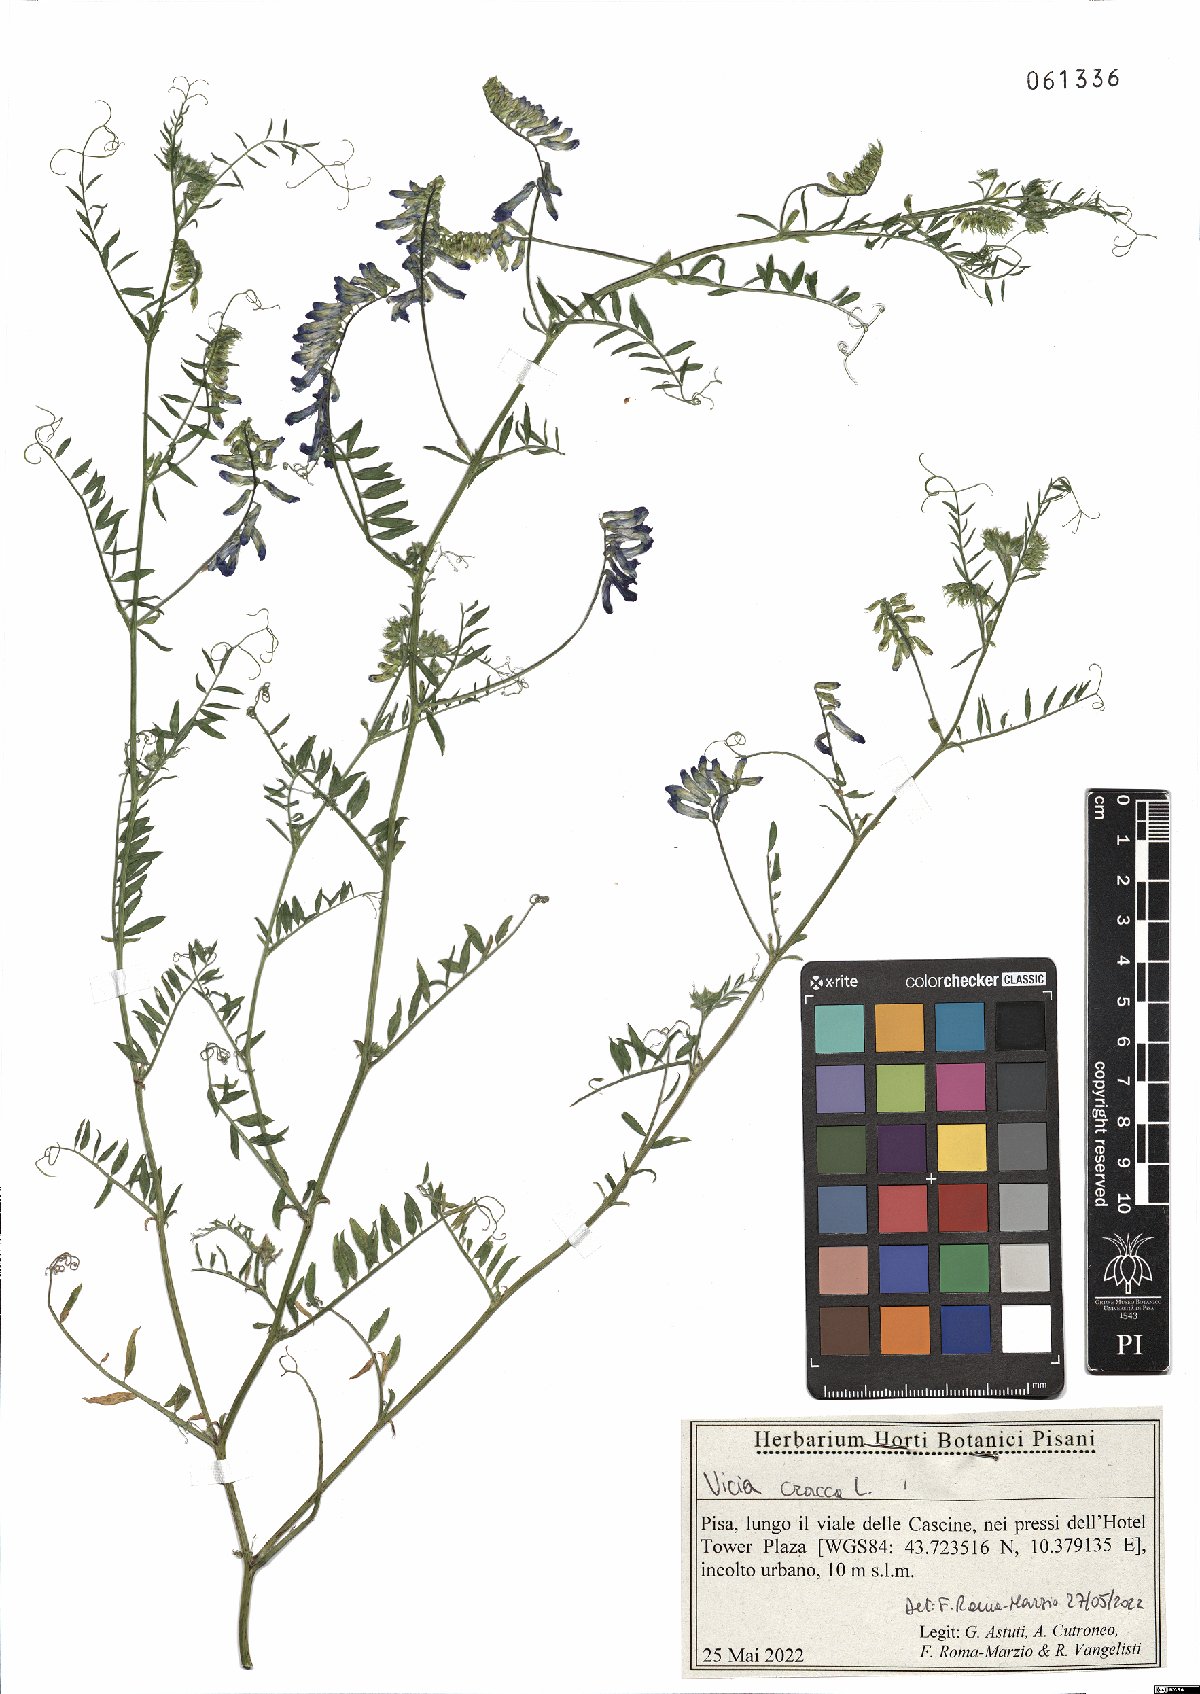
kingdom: Plantae
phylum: Tracheophyta
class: Magnoliopsida
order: Fabales
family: Fabaceae
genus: Vicia
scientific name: Vicia cracca
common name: Bird vetch
